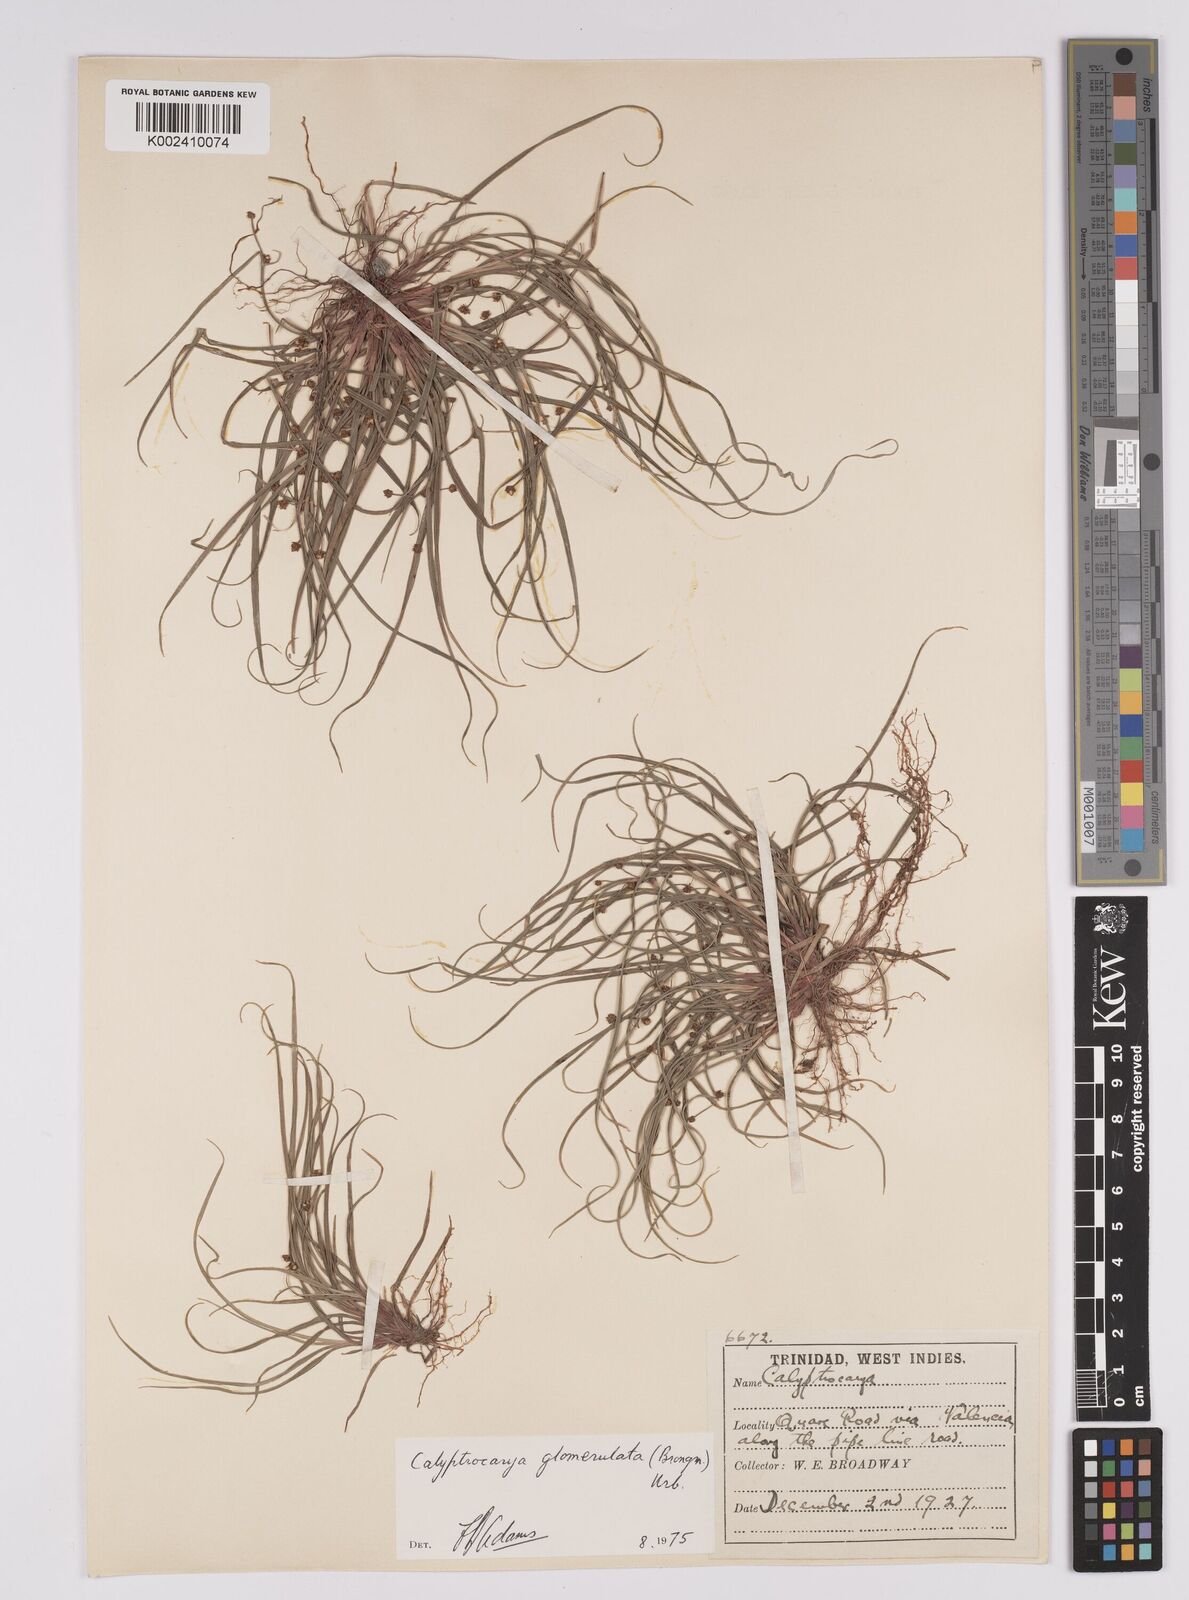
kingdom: Plantae
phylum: Tracheophyta
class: Liliopsida
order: Poales
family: Cyperaceae
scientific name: Cyperaceae
